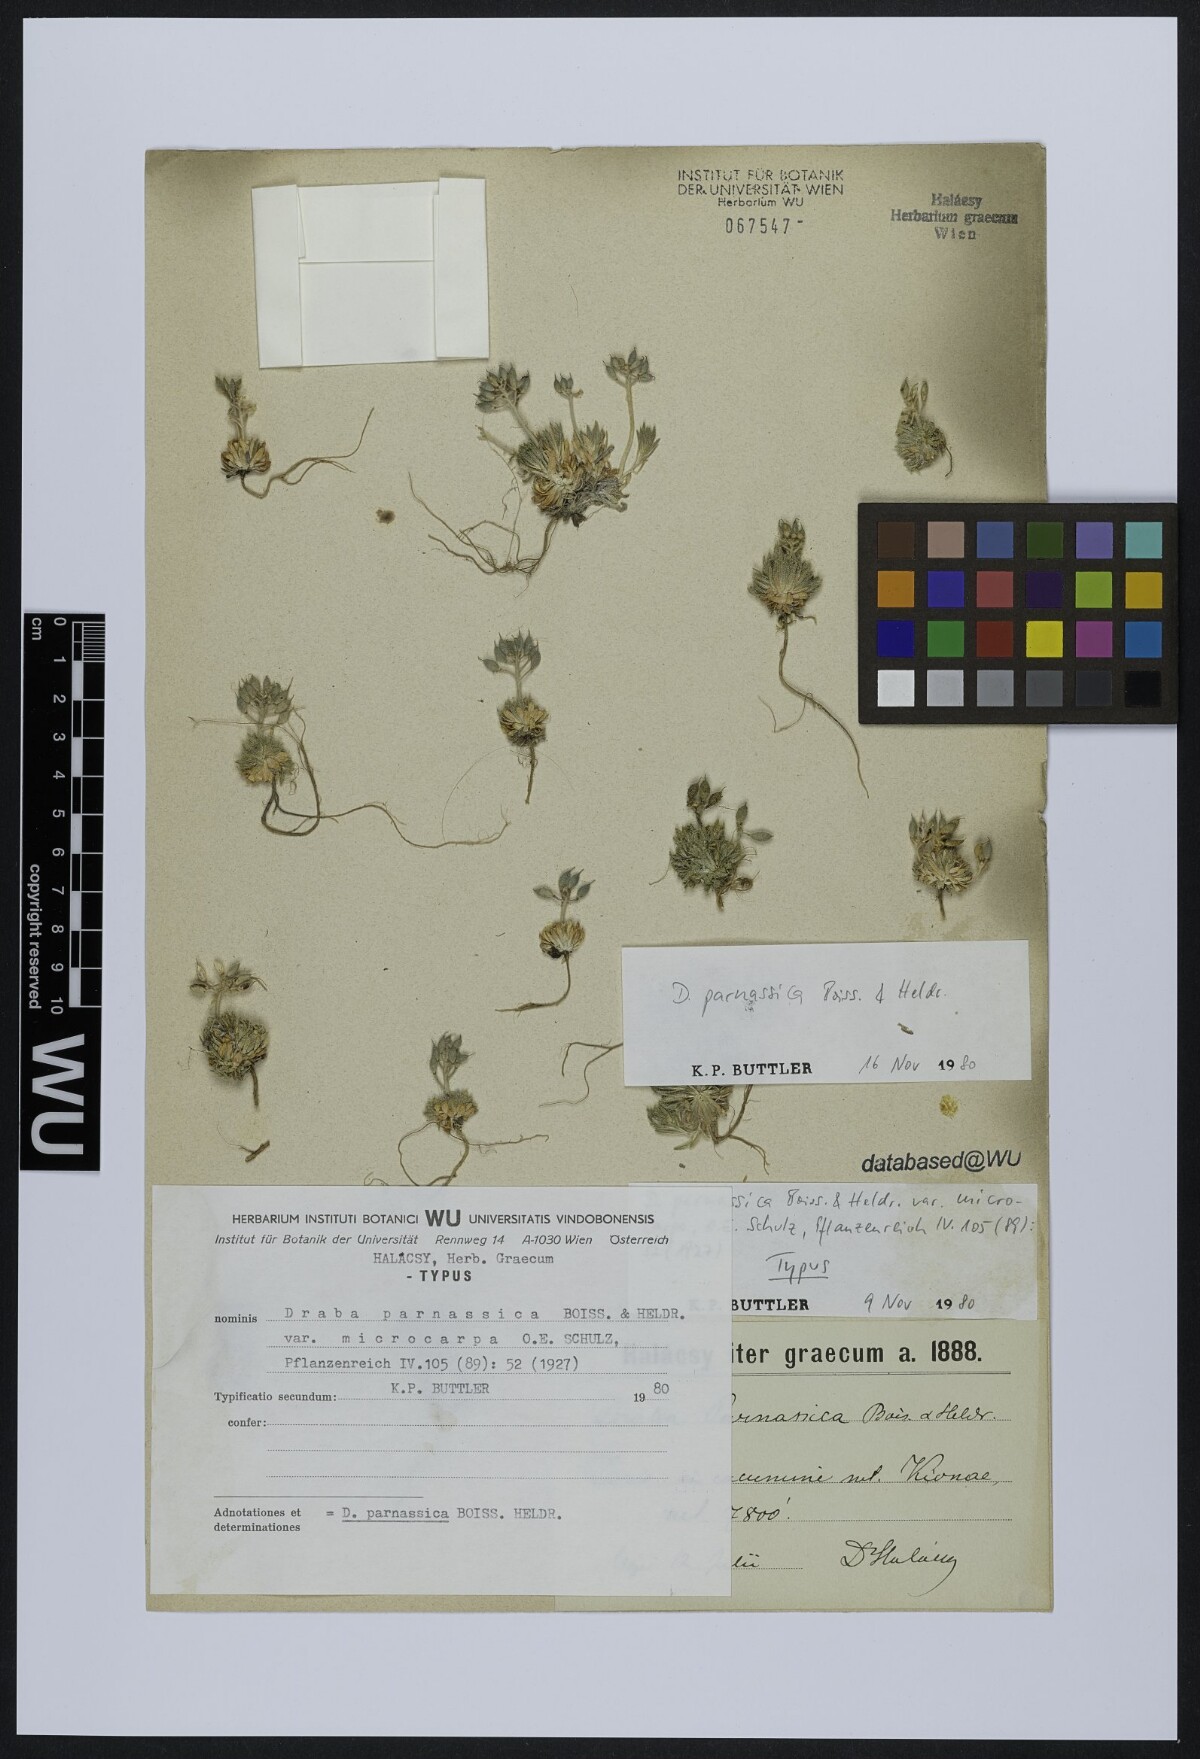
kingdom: Plantae
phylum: Tracheophyta
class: Magnoliopsida
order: Brassicales
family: Brassicaceae
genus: Draba
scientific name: Draba parnassica
